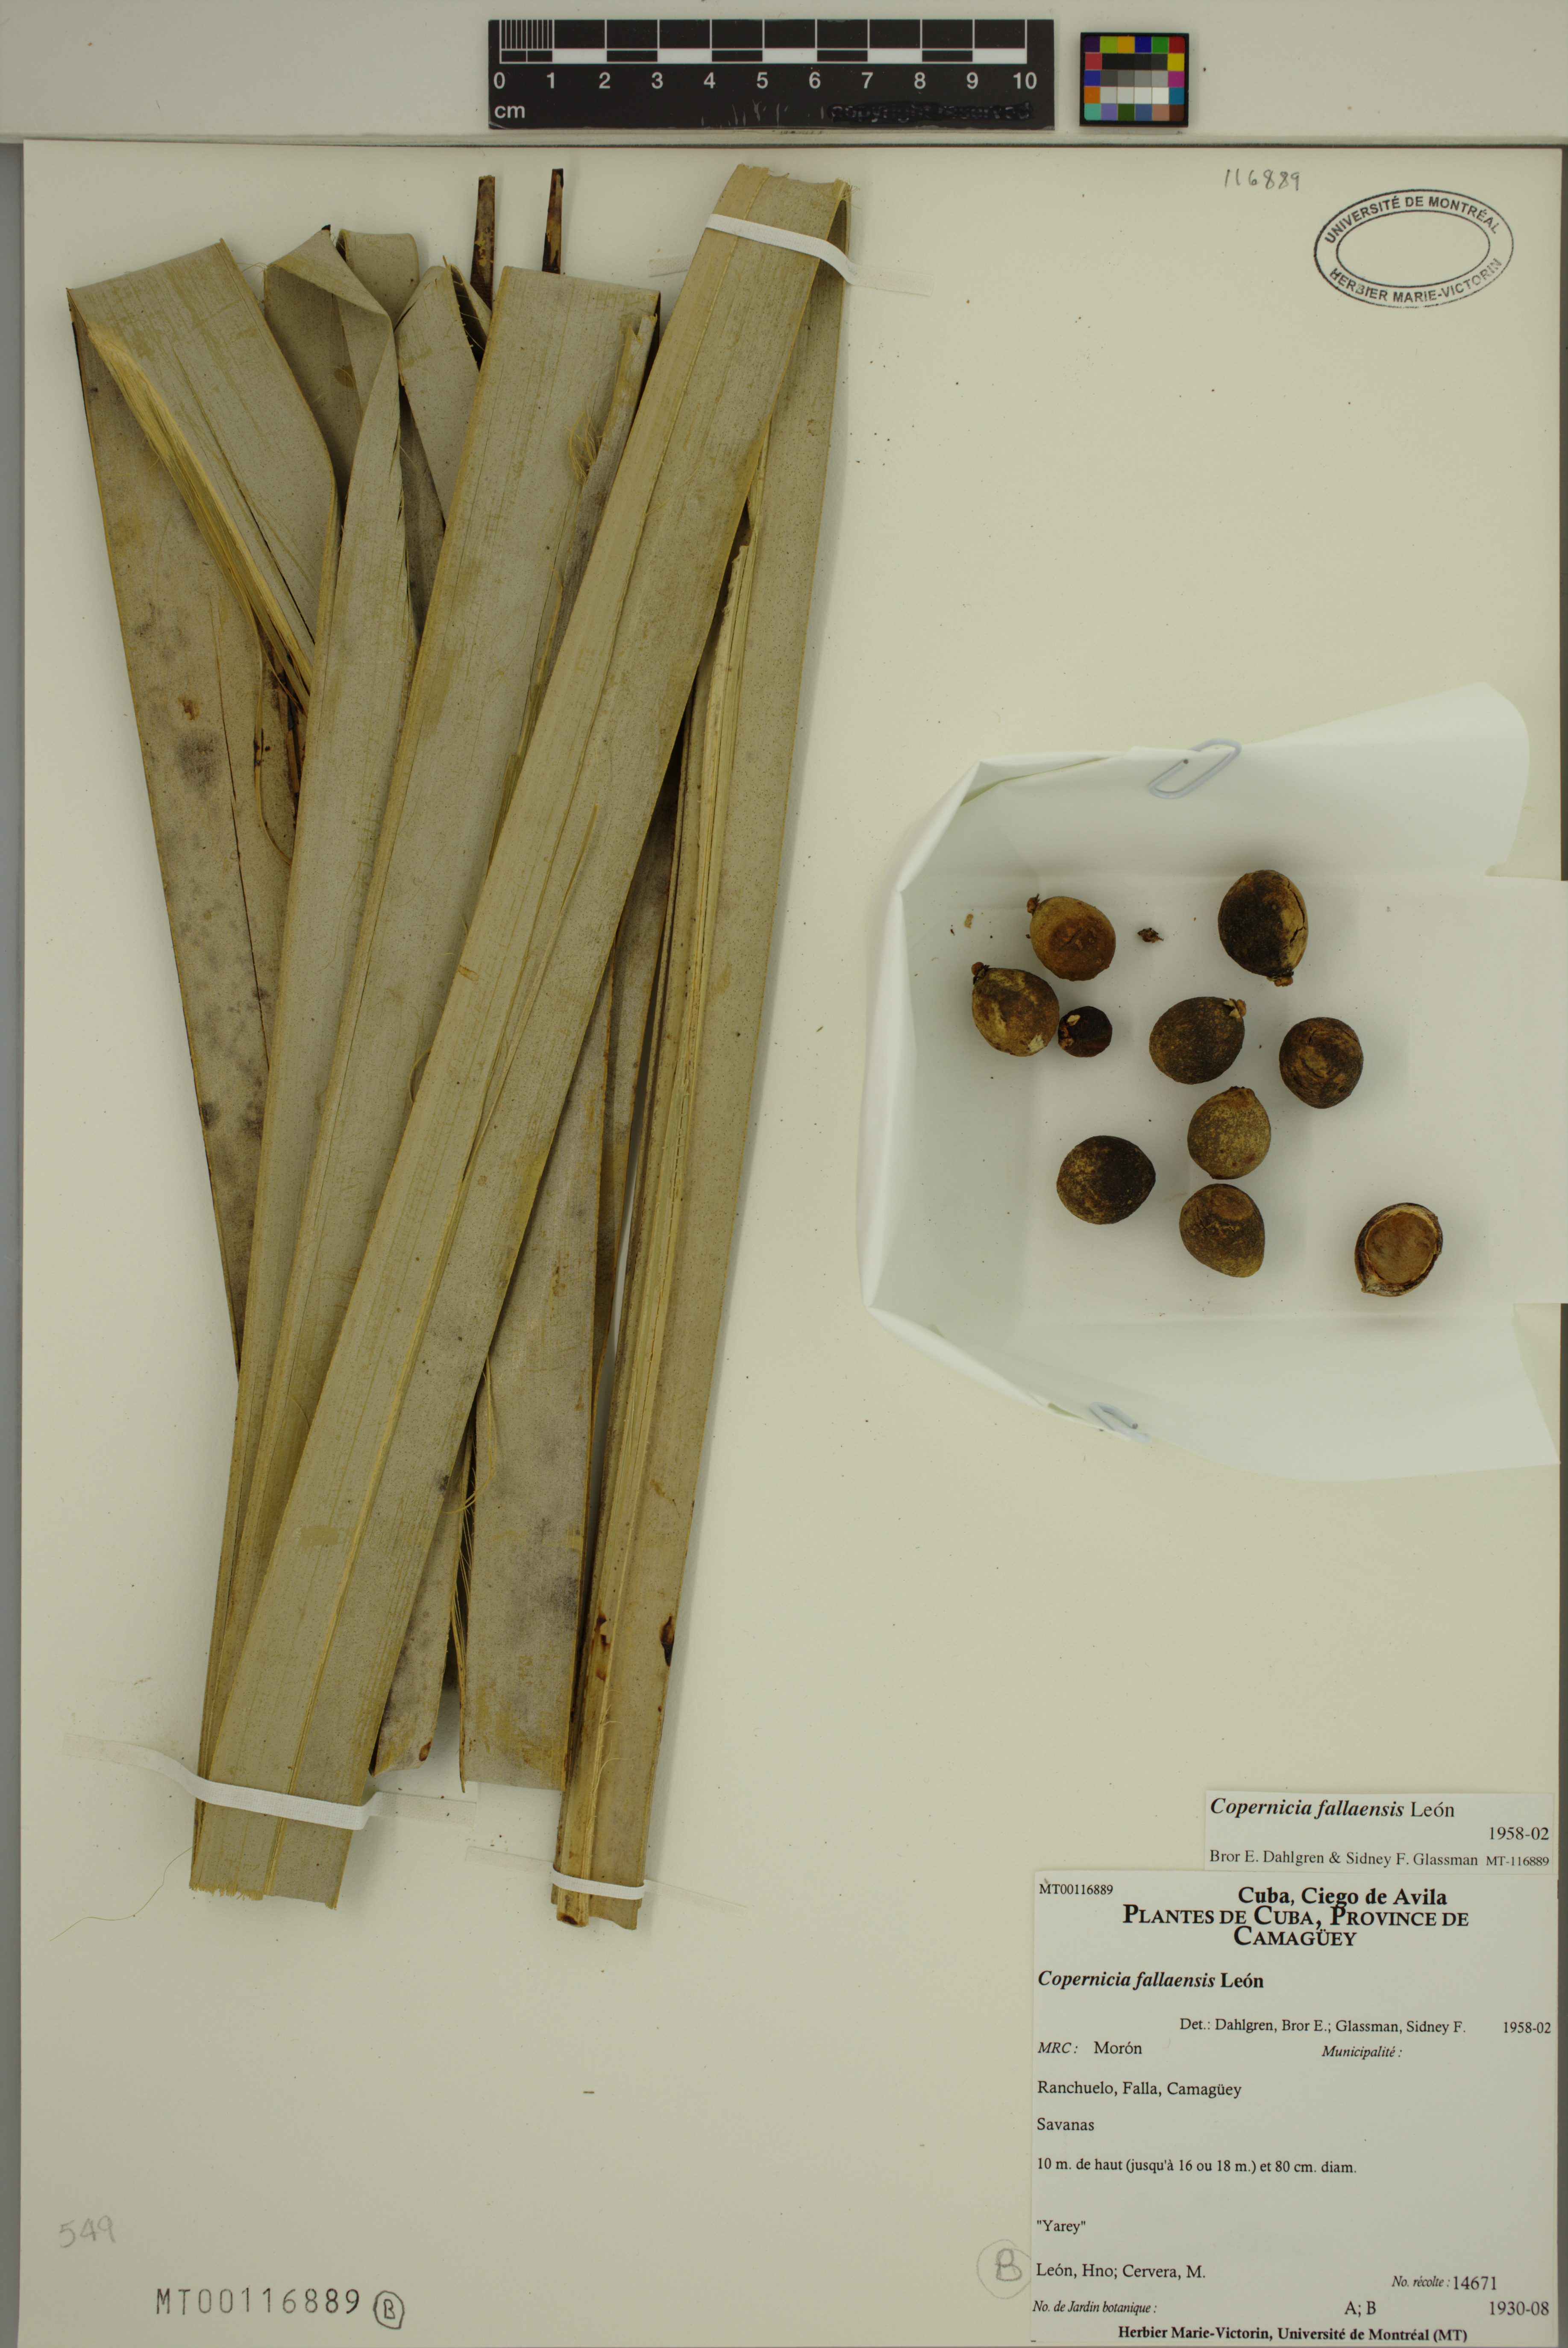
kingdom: Plantae
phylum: Tracheophyta
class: Liliopsida
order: Arecales
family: Arecaceae
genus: Copernicia
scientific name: Copernicia fallaensis
